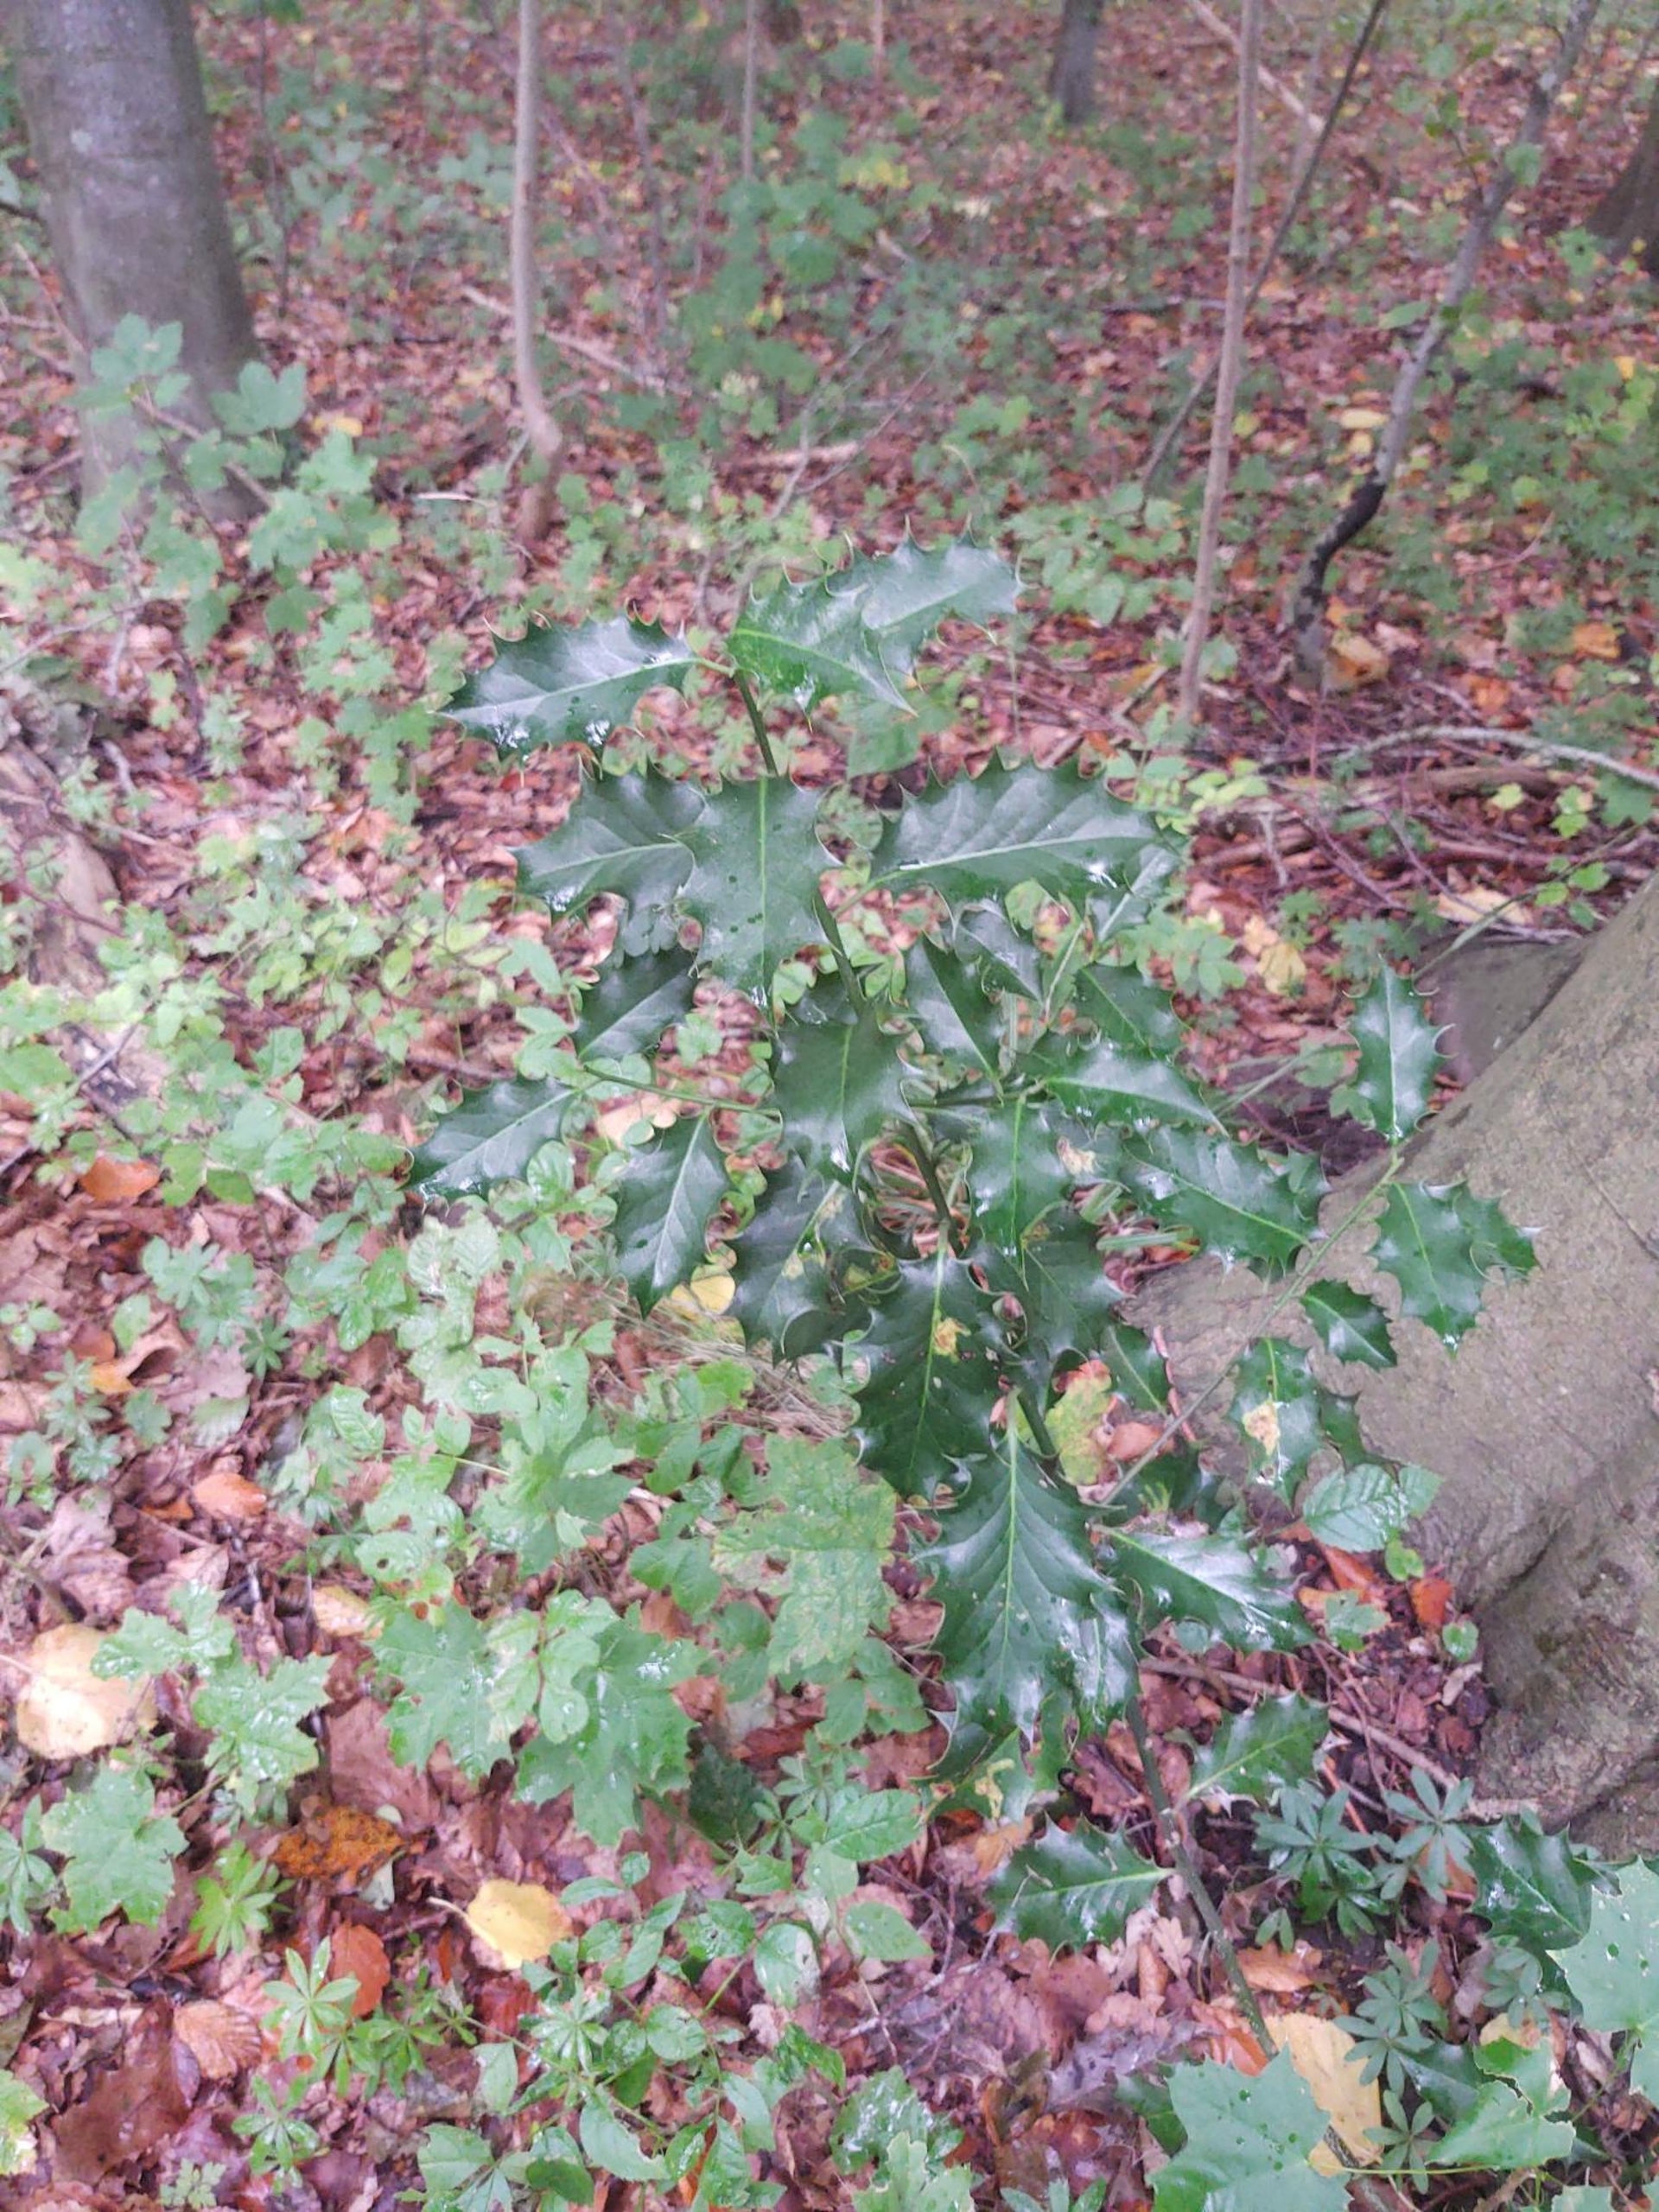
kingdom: Plantae
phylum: Tracheophyta
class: Magnoliopsida
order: Aquifoliales
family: Aquifoliaceae
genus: Ilex
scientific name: Ilex aquifolium
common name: Kristtorn
